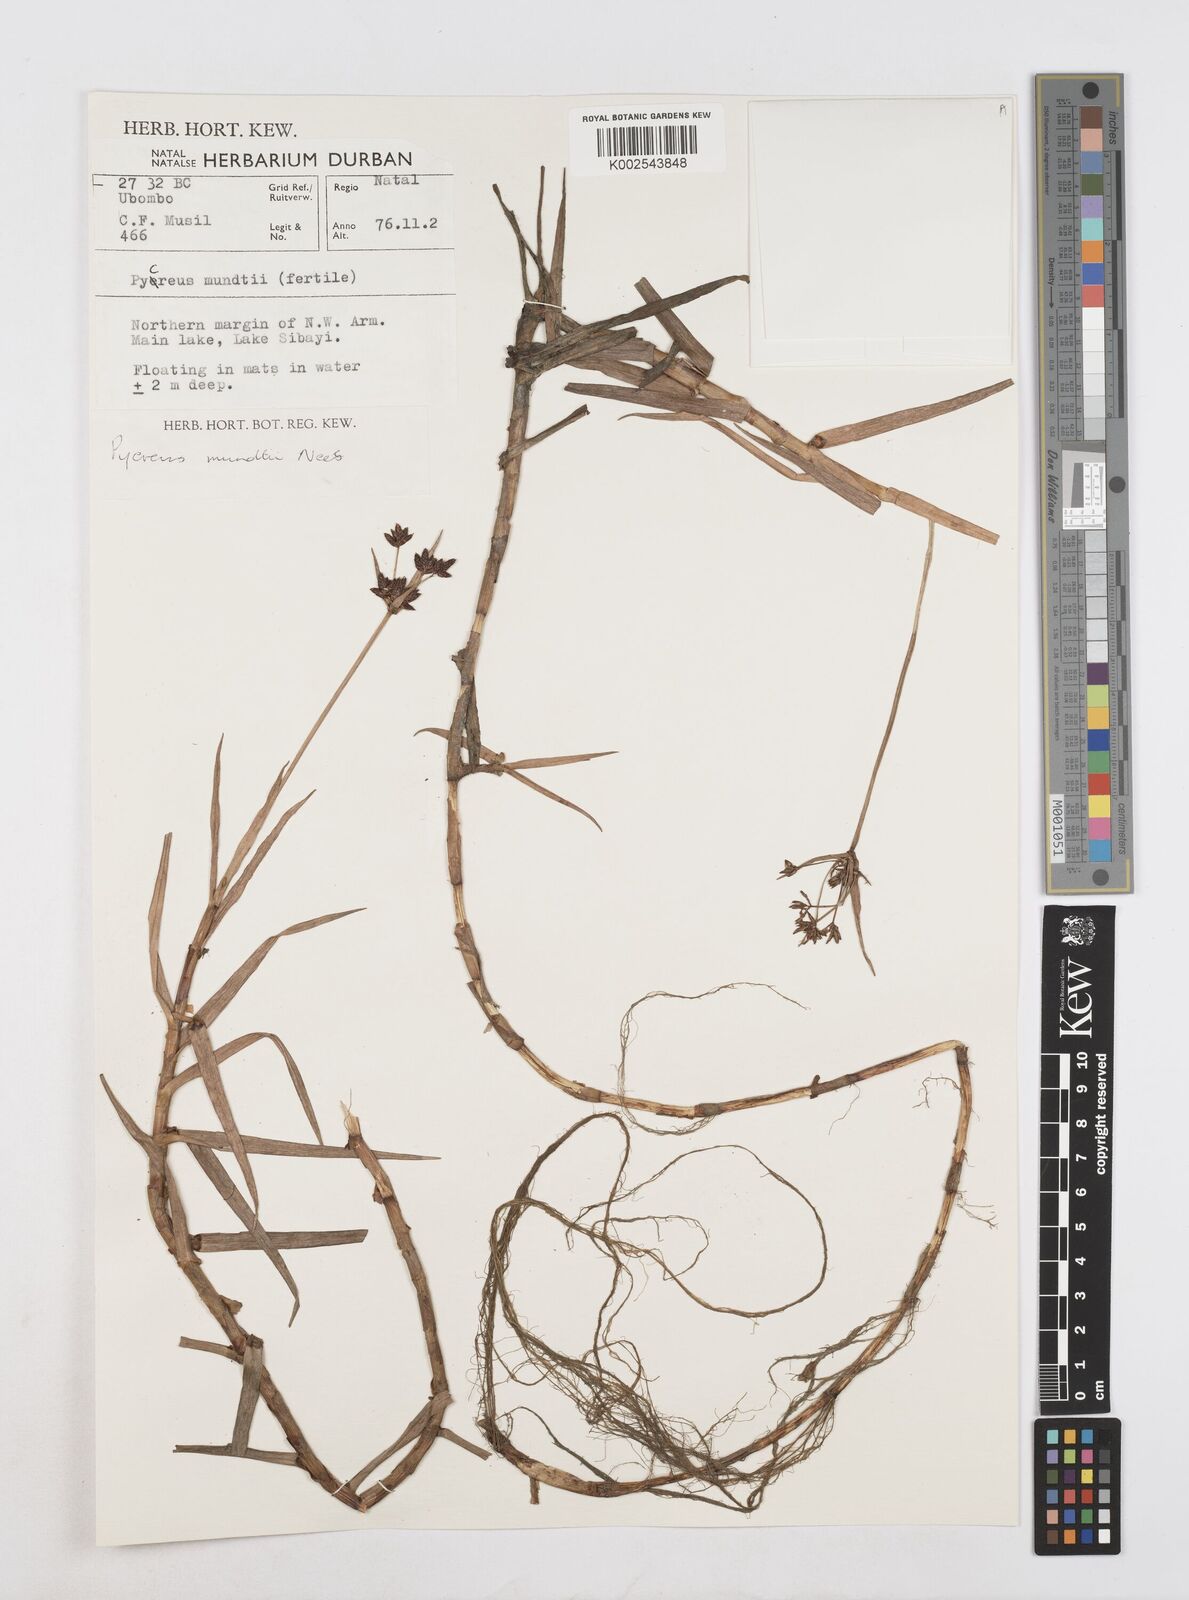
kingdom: Plantae
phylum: Tracheophyta
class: Liliopsida
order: Poales
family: Cyperaceae
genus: Cyperus
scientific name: Cyperus mundii
